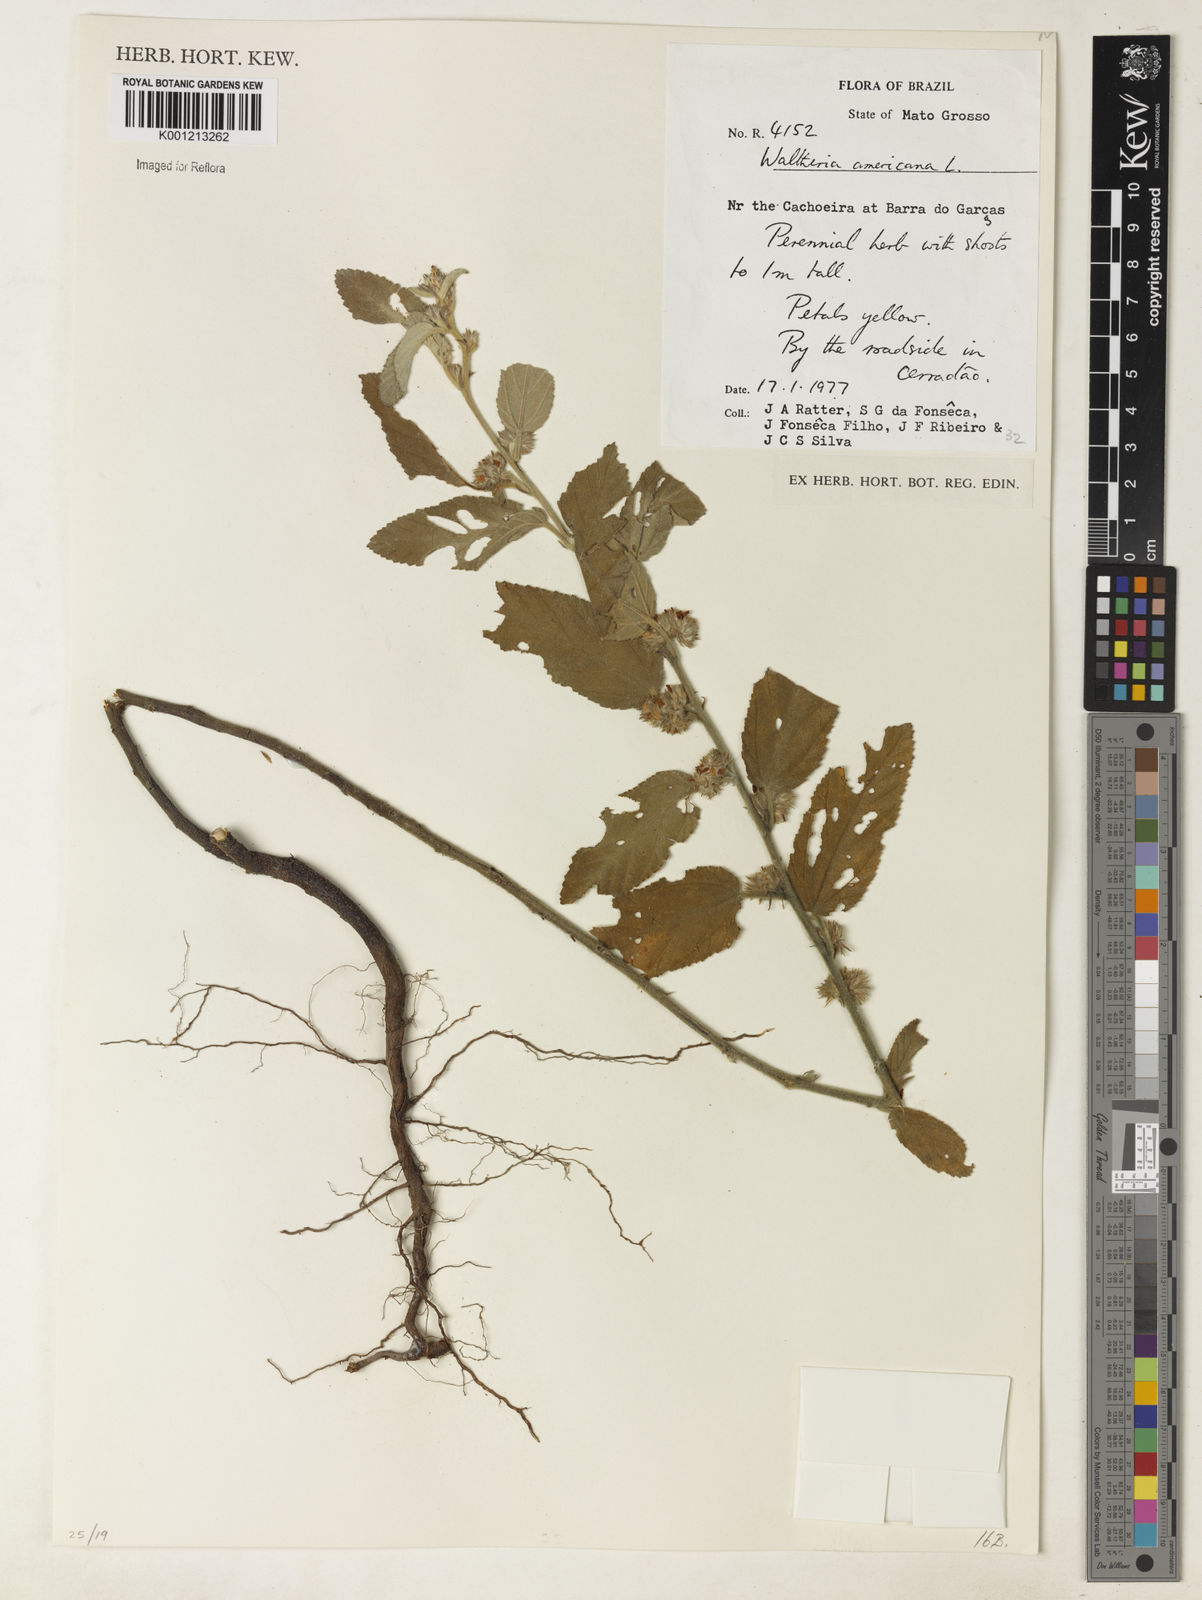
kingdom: Plantae
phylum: Tracheophyta
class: Magnoliopsida
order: Malvales
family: Malvaceae
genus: Waltheria
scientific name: Waltheria indica
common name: Leather-coat
